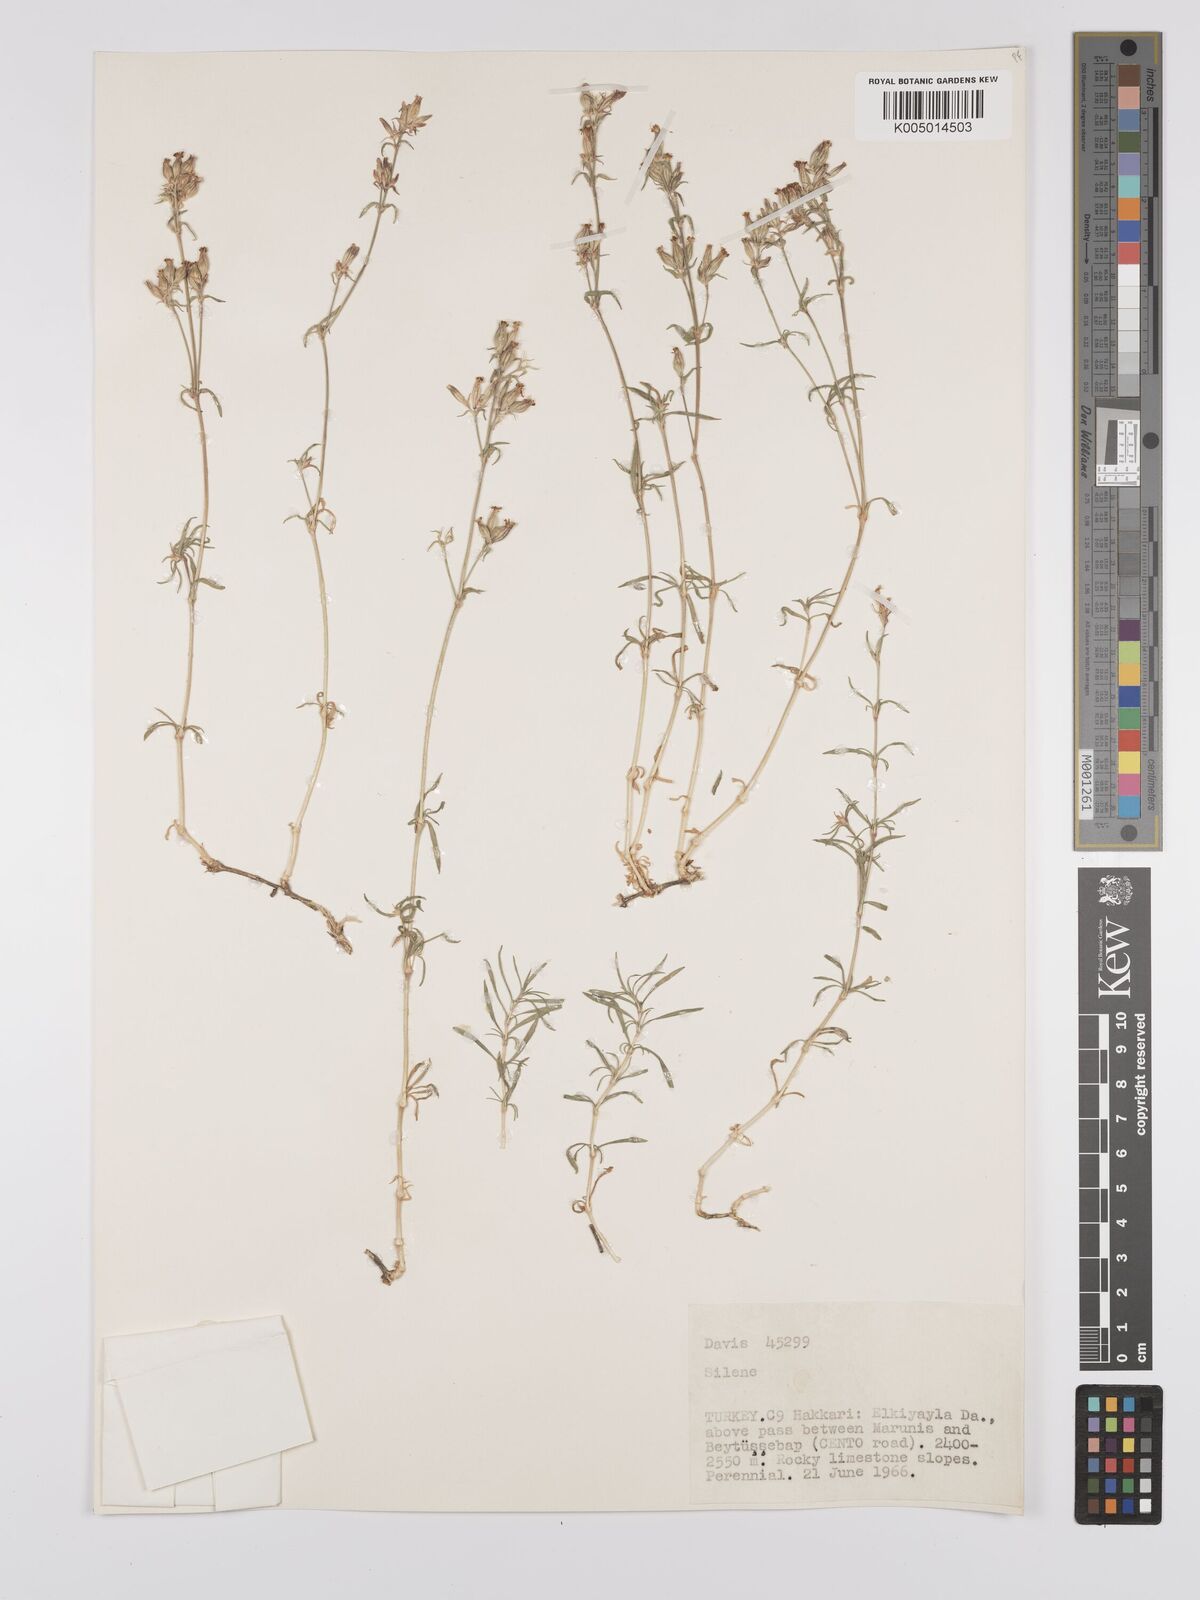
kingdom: Plantae
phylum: Tracheophyta
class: Magnoliopsida
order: Caryophyllales
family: Caryophyllaceae
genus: Silene
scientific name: Silene
